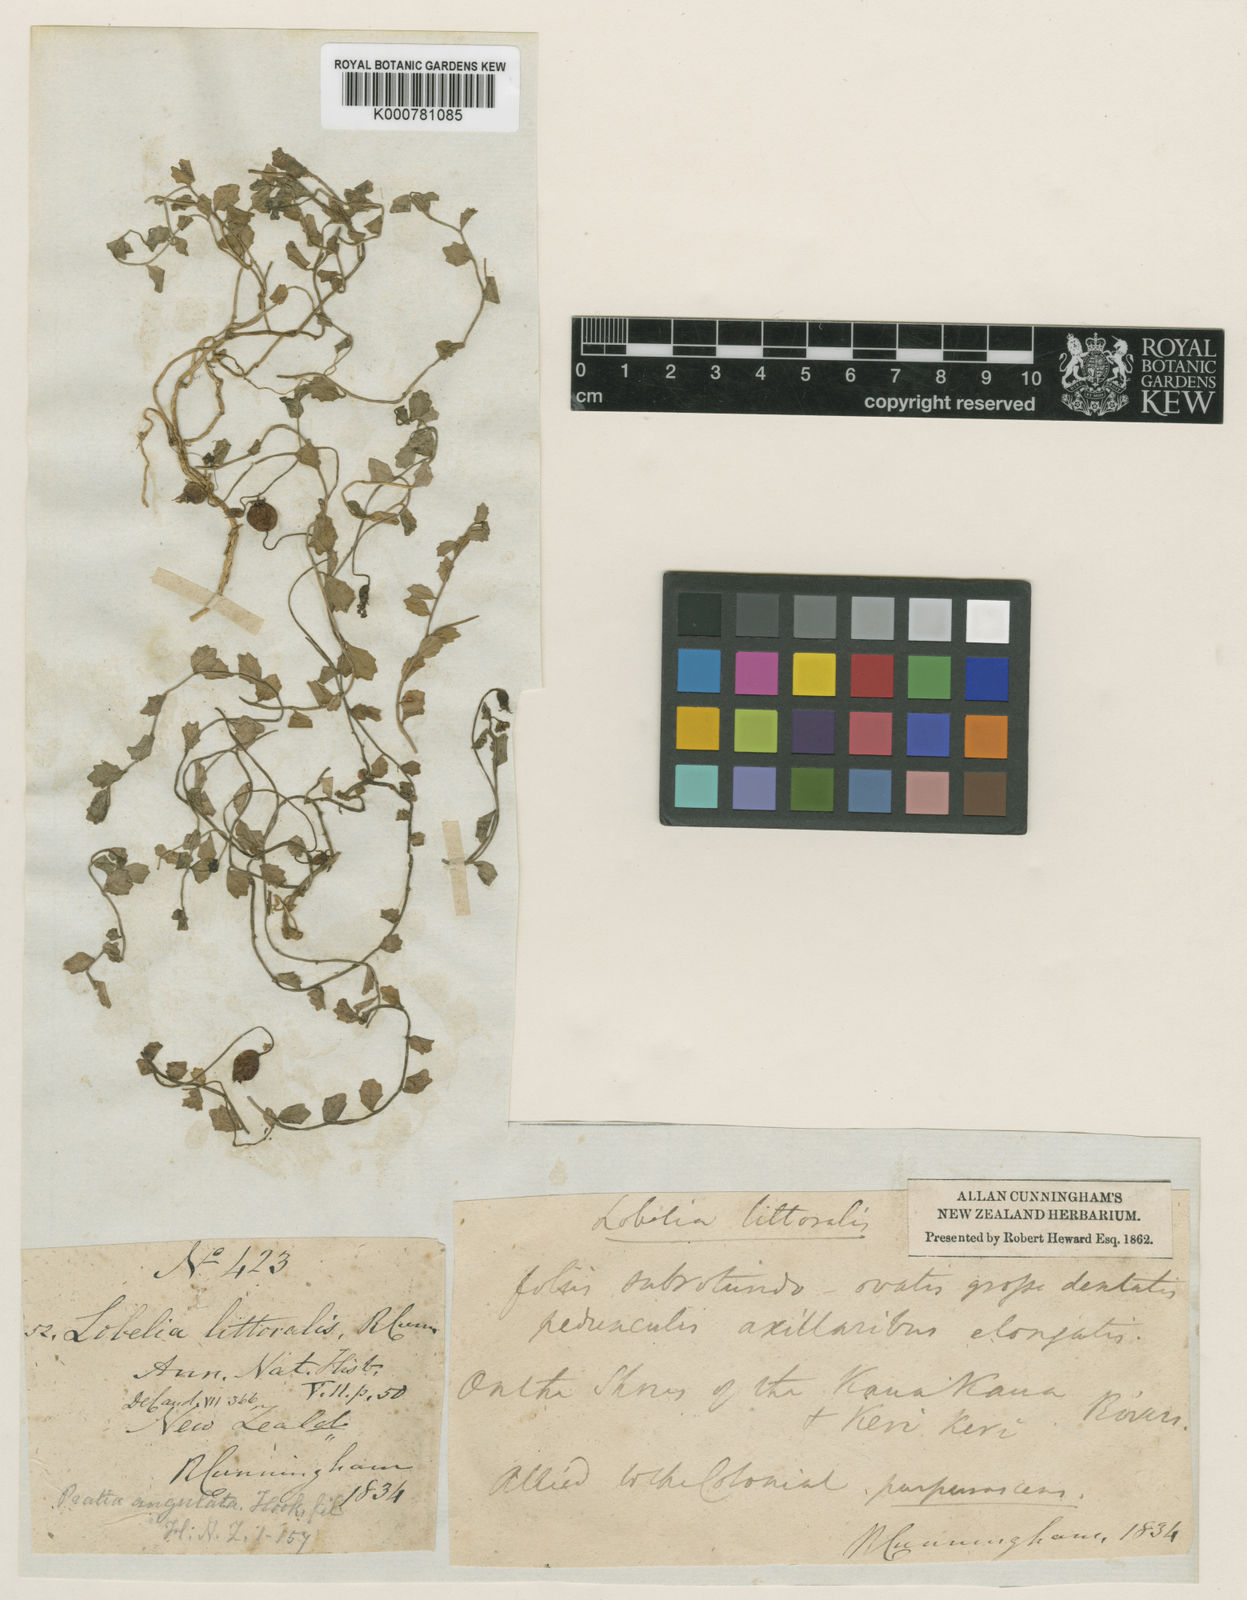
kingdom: Plantae
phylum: Tracheophyta
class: Magnoliopsida
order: Asterales
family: Campanulaceae
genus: Lobelia
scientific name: Lobelia angulata
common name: Lawn lobelia
